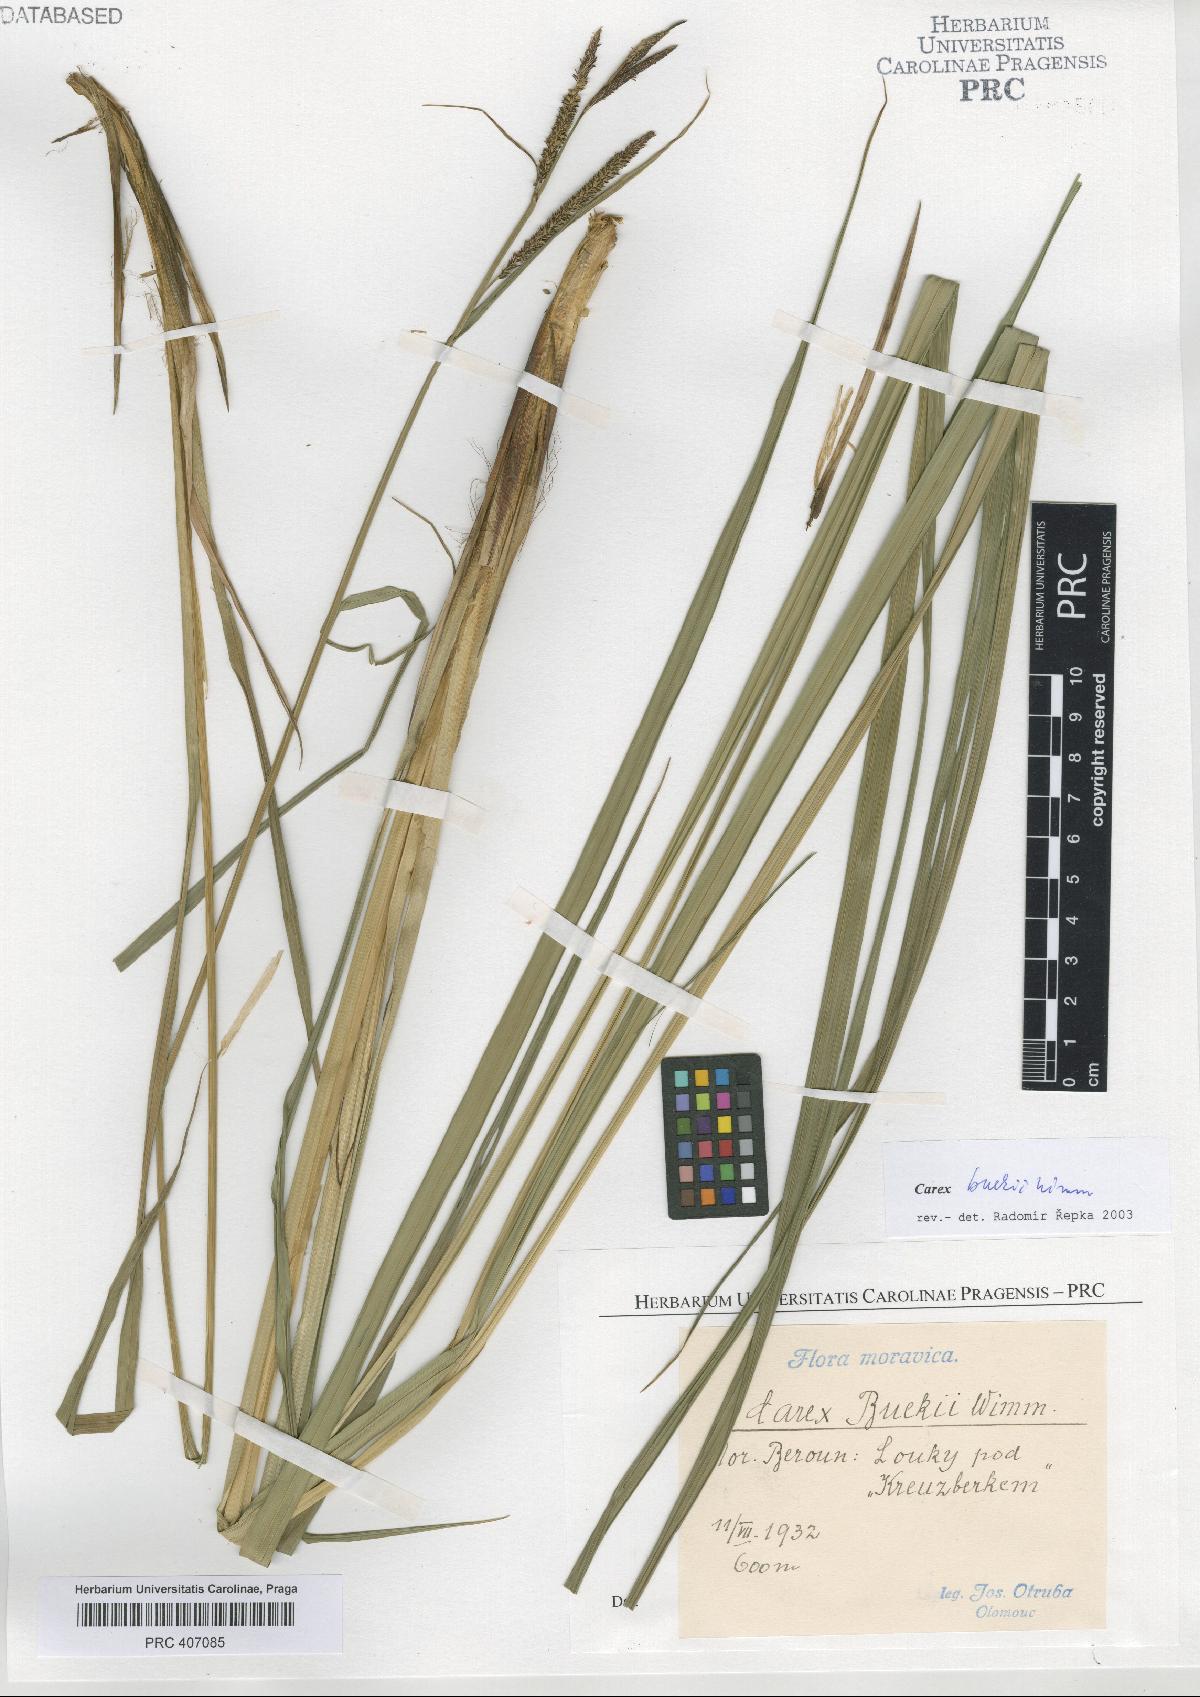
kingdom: Plantae
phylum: Tracheophyta
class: Liliopsida
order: Poales
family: Cyperaceae
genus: Carex
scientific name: Carex buekii
